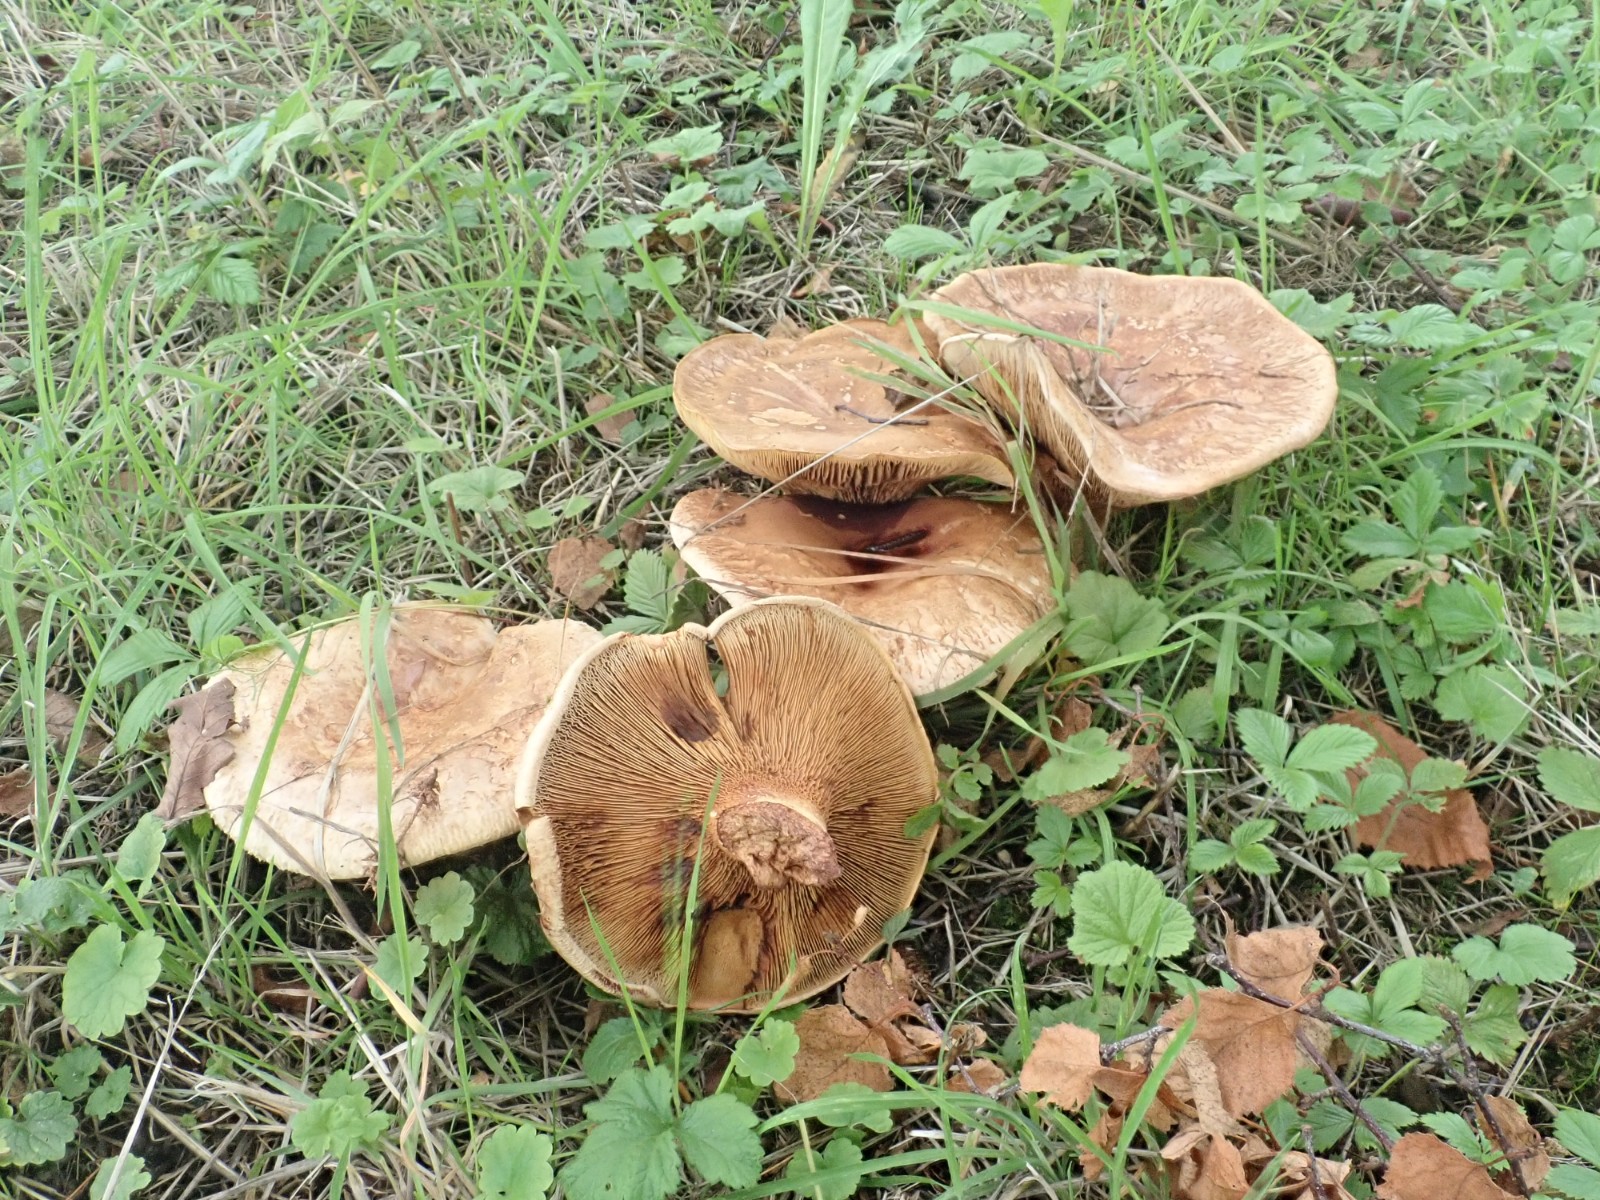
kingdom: Fungi
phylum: Basidiomycota
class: Agaricomycetes
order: Boletales
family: Paxillaceae
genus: Paxillus
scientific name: Paxillus
